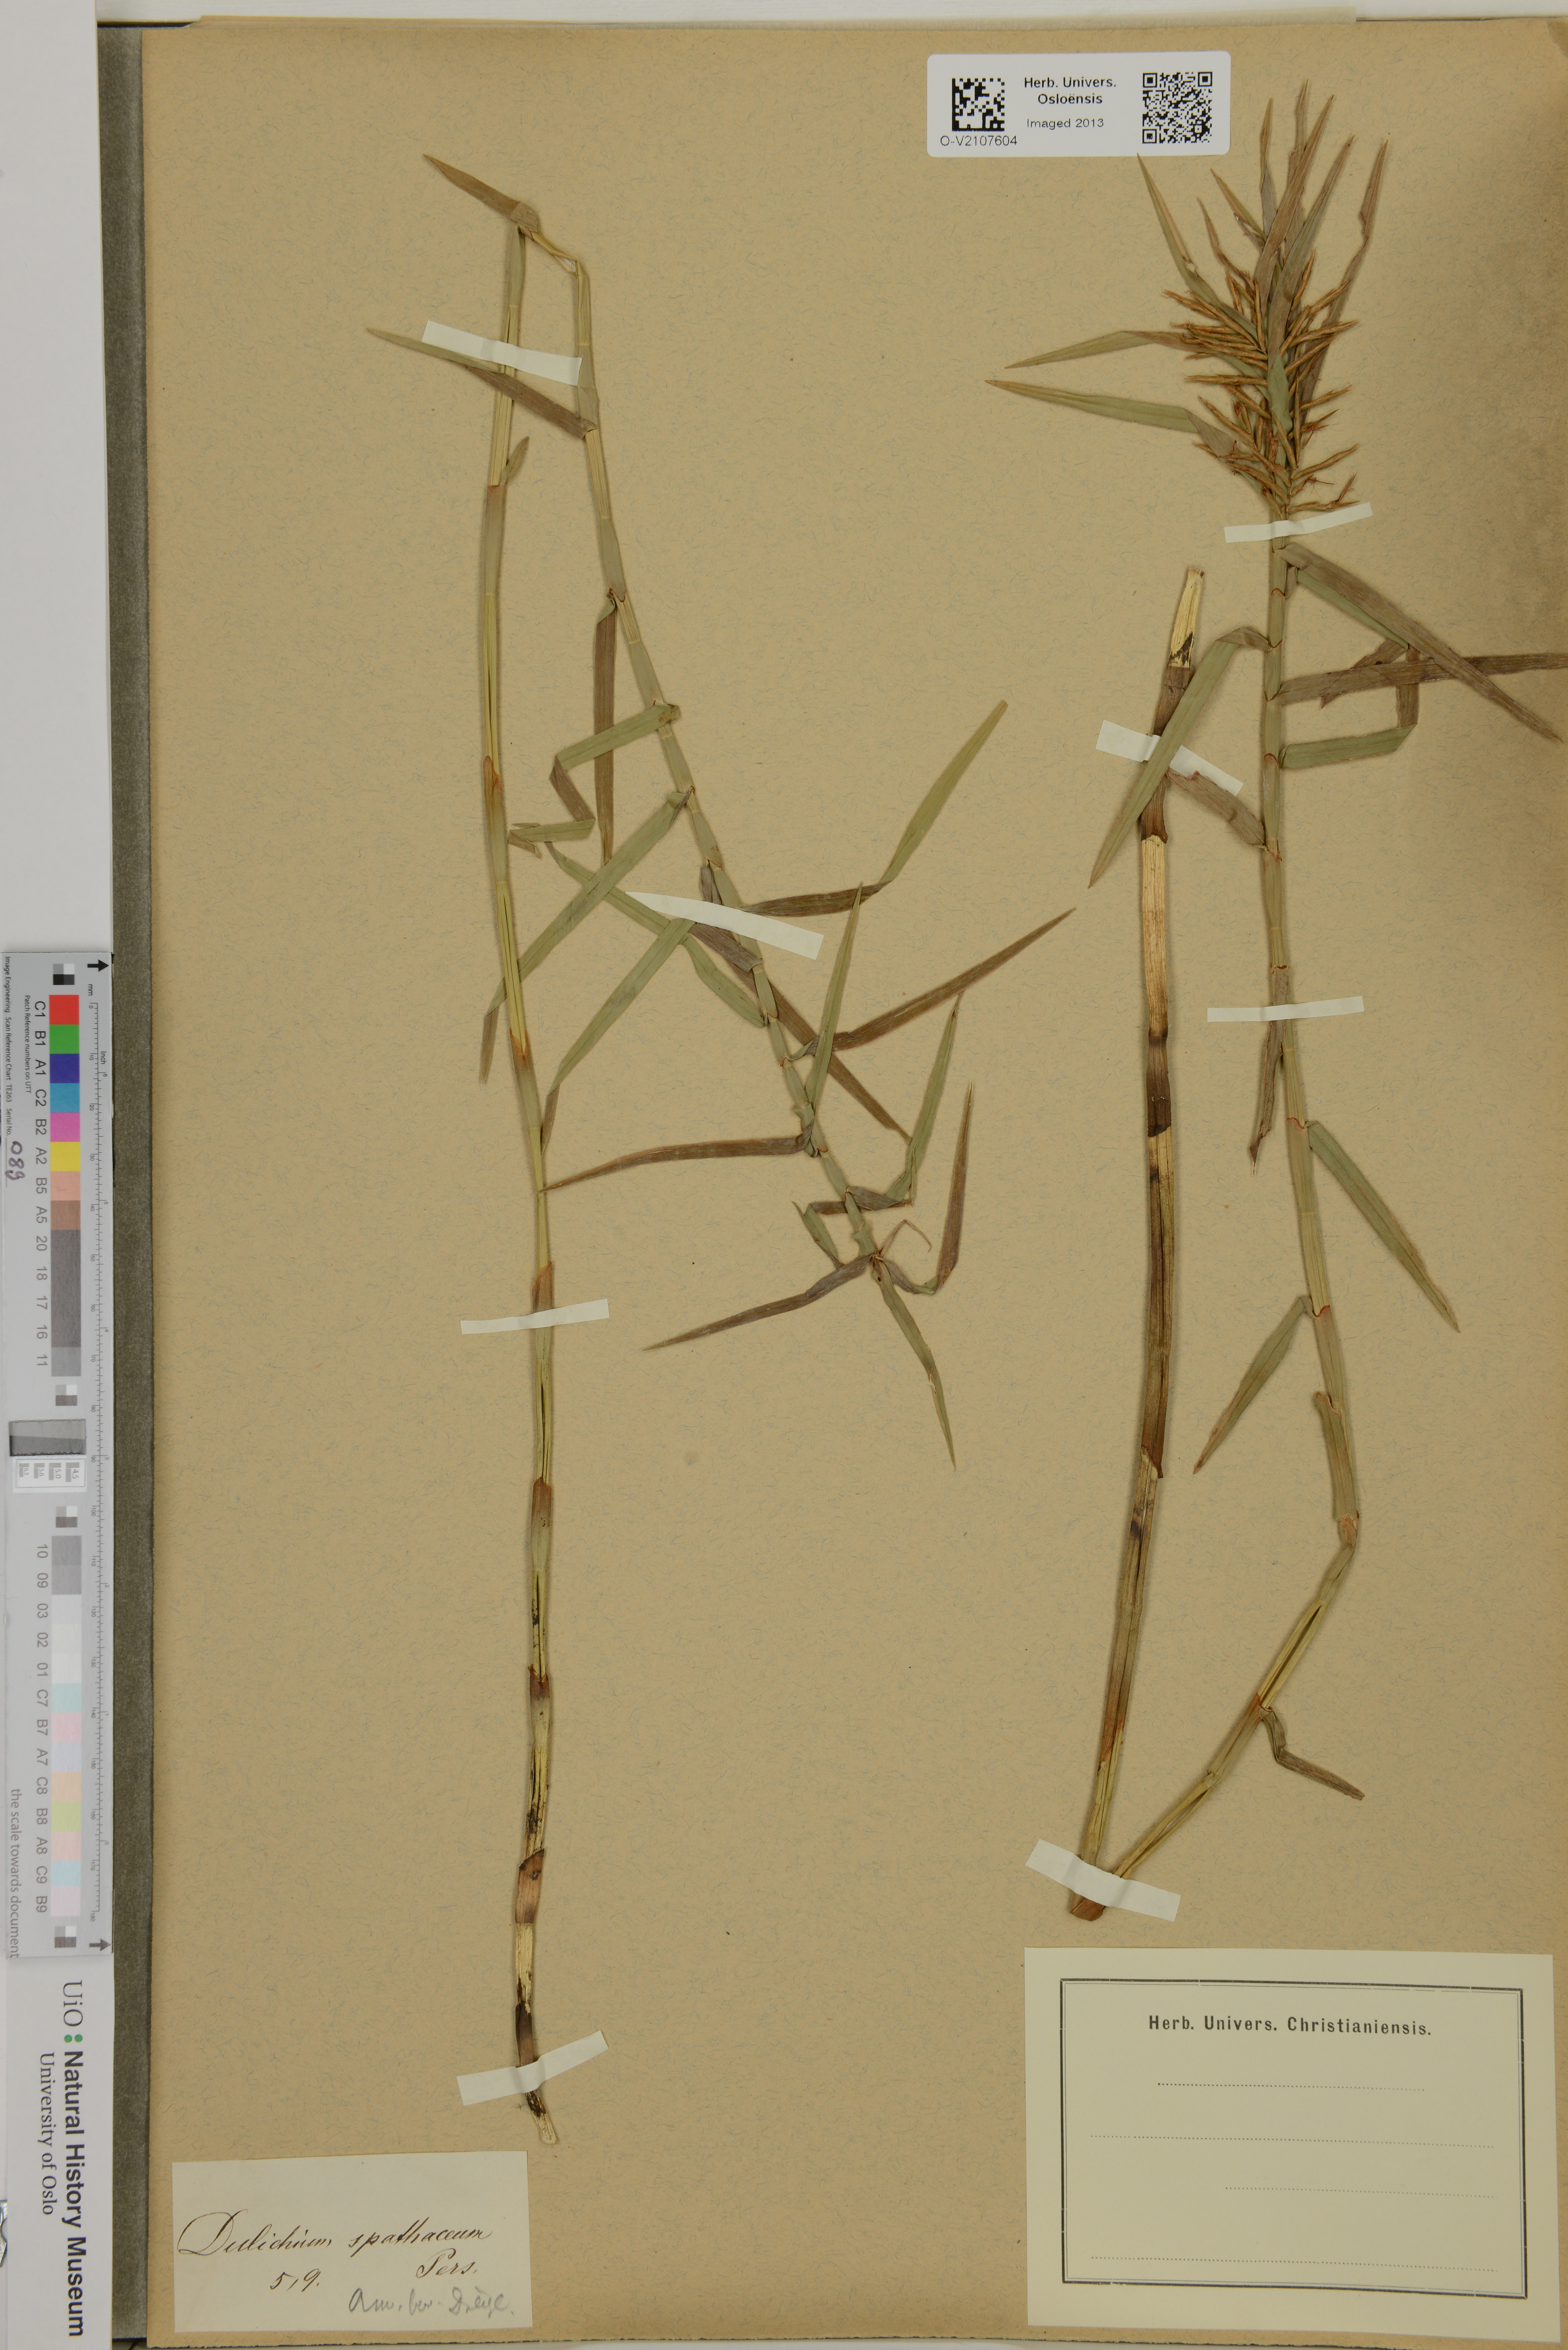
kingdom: Plantae
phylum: Tracheophyta
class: Liliopsida
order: Poales
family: Cyperaceae
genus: Dulichium
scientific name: Dulichium arundinaceum
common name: Three-way sedge
